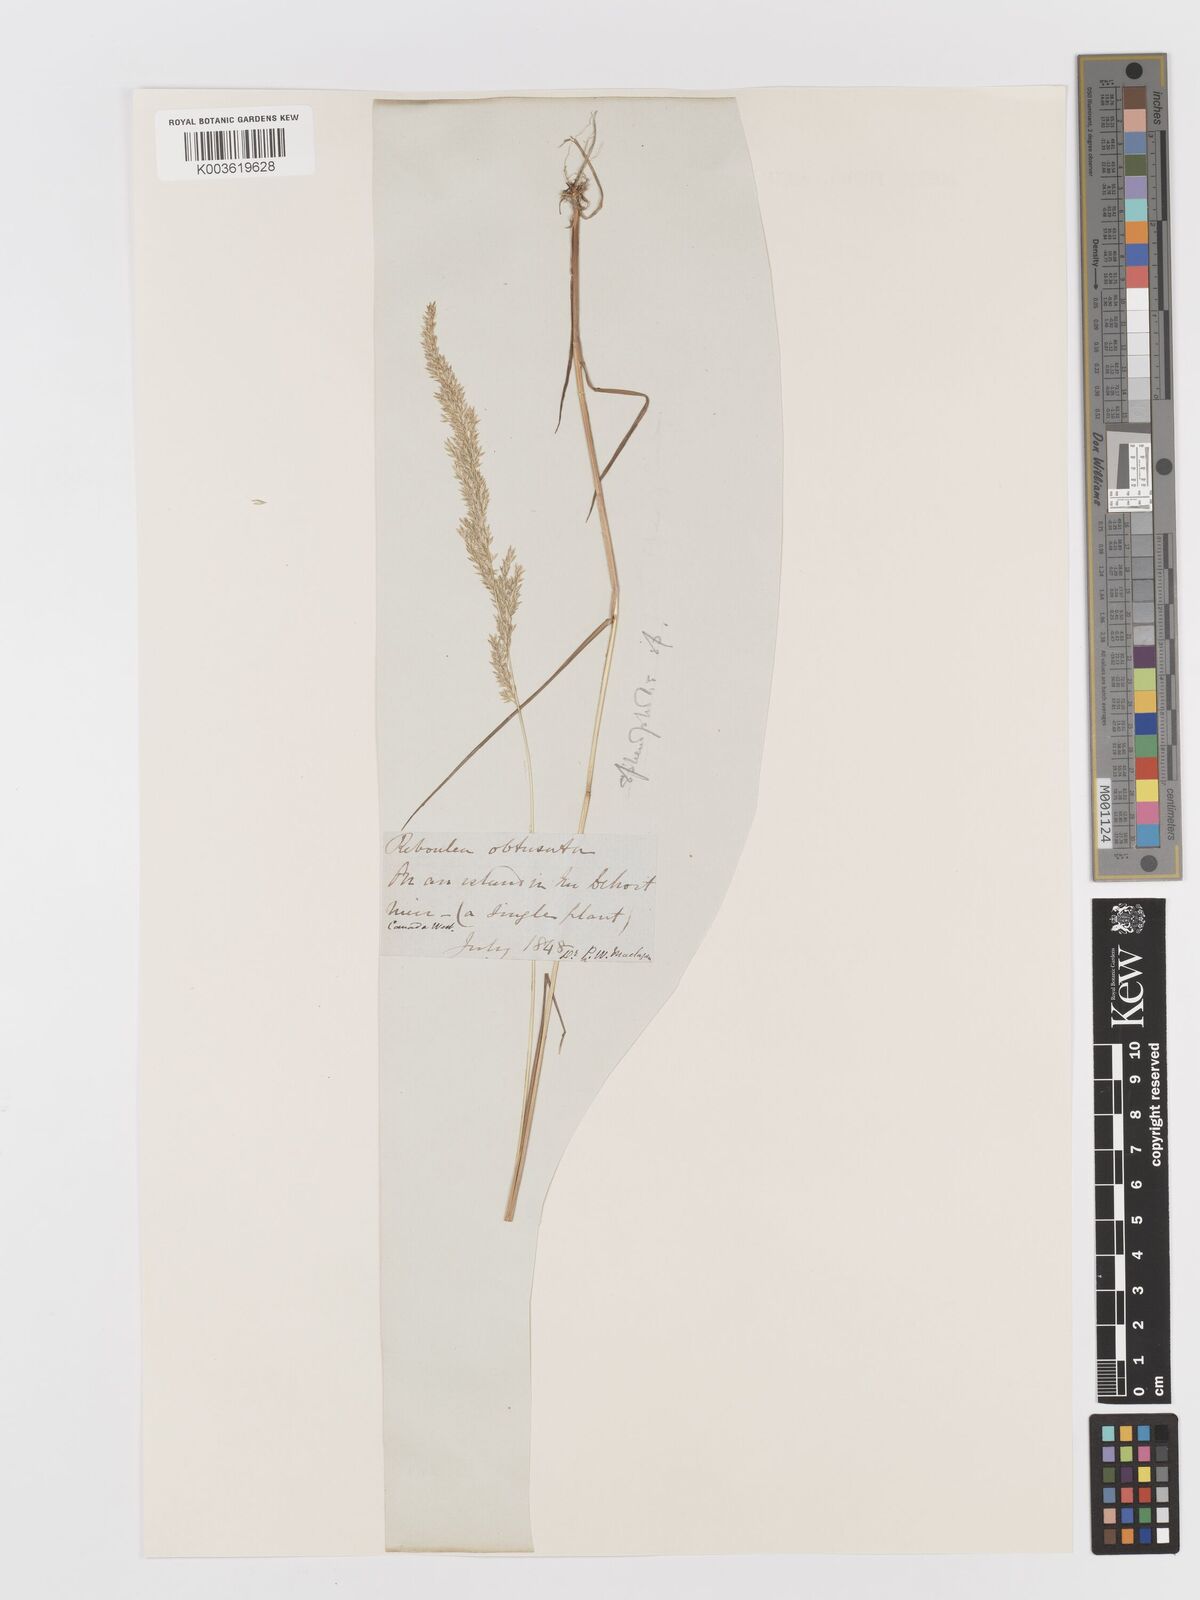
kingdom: Plantae
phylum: Tracheophyta
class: Liliopsida
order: Poales
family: Poaceae
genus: Sphenopholis
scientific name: Sphenopholis obtusata
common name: Prairie grass
